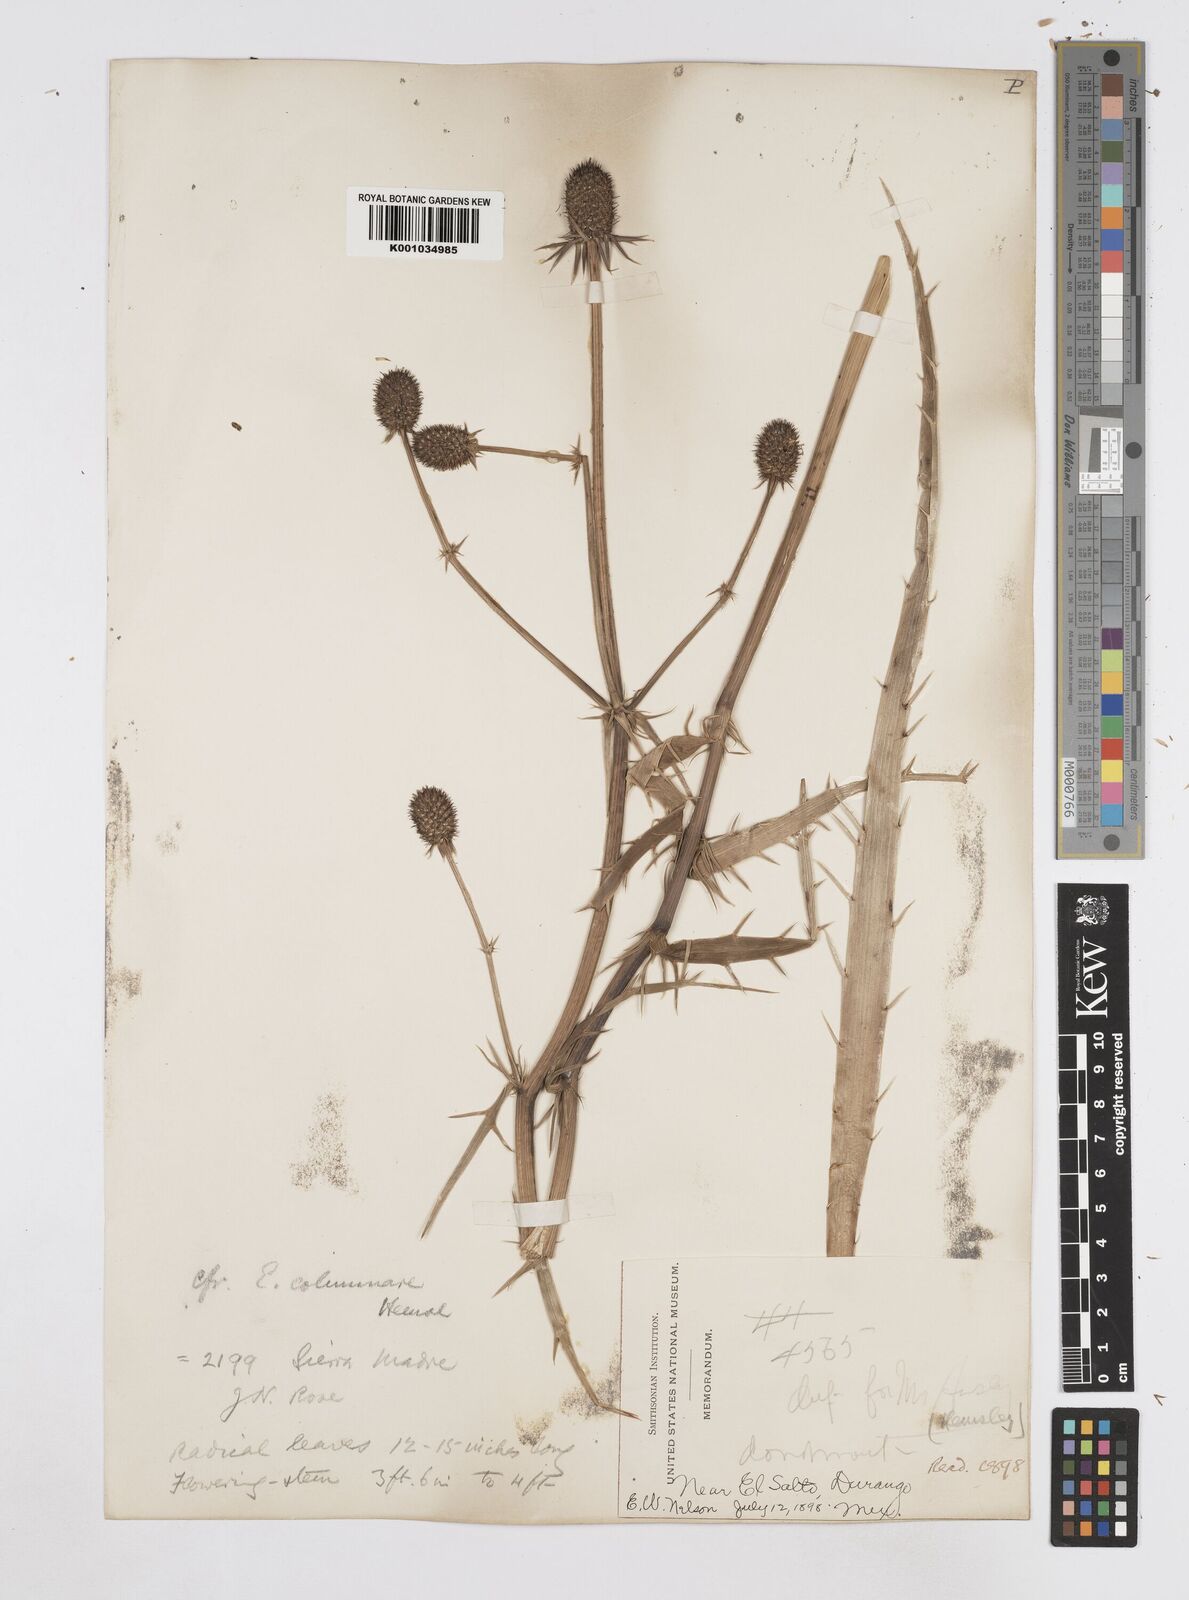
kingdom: Plantae
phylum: Tracheophyta
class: Magnoliopsida
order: Apiales
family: Apiaceae
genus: Eryngium
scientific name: Eryngium columnare
